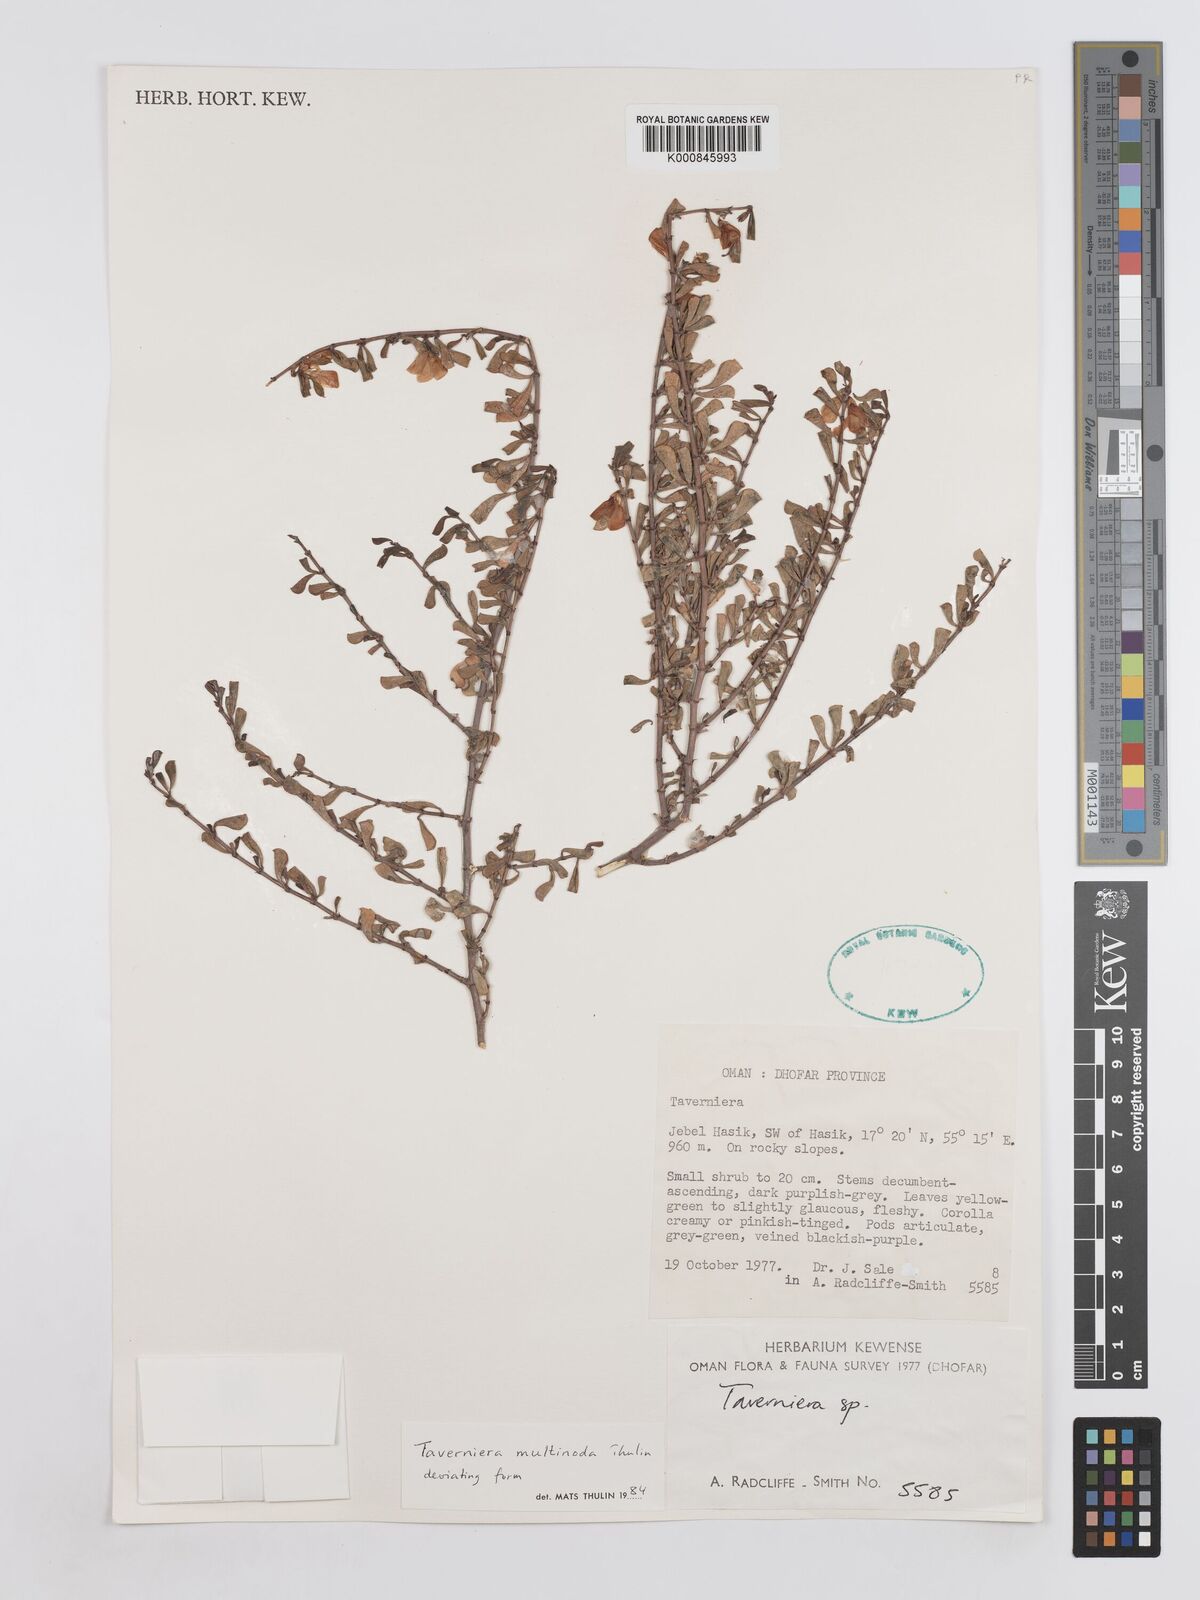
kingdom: Plantae
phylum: Tracheophyta
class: Magnoliopsida
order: Fabales
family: Fabaceae
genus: Taverniera
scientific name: Taverniera multinoda
